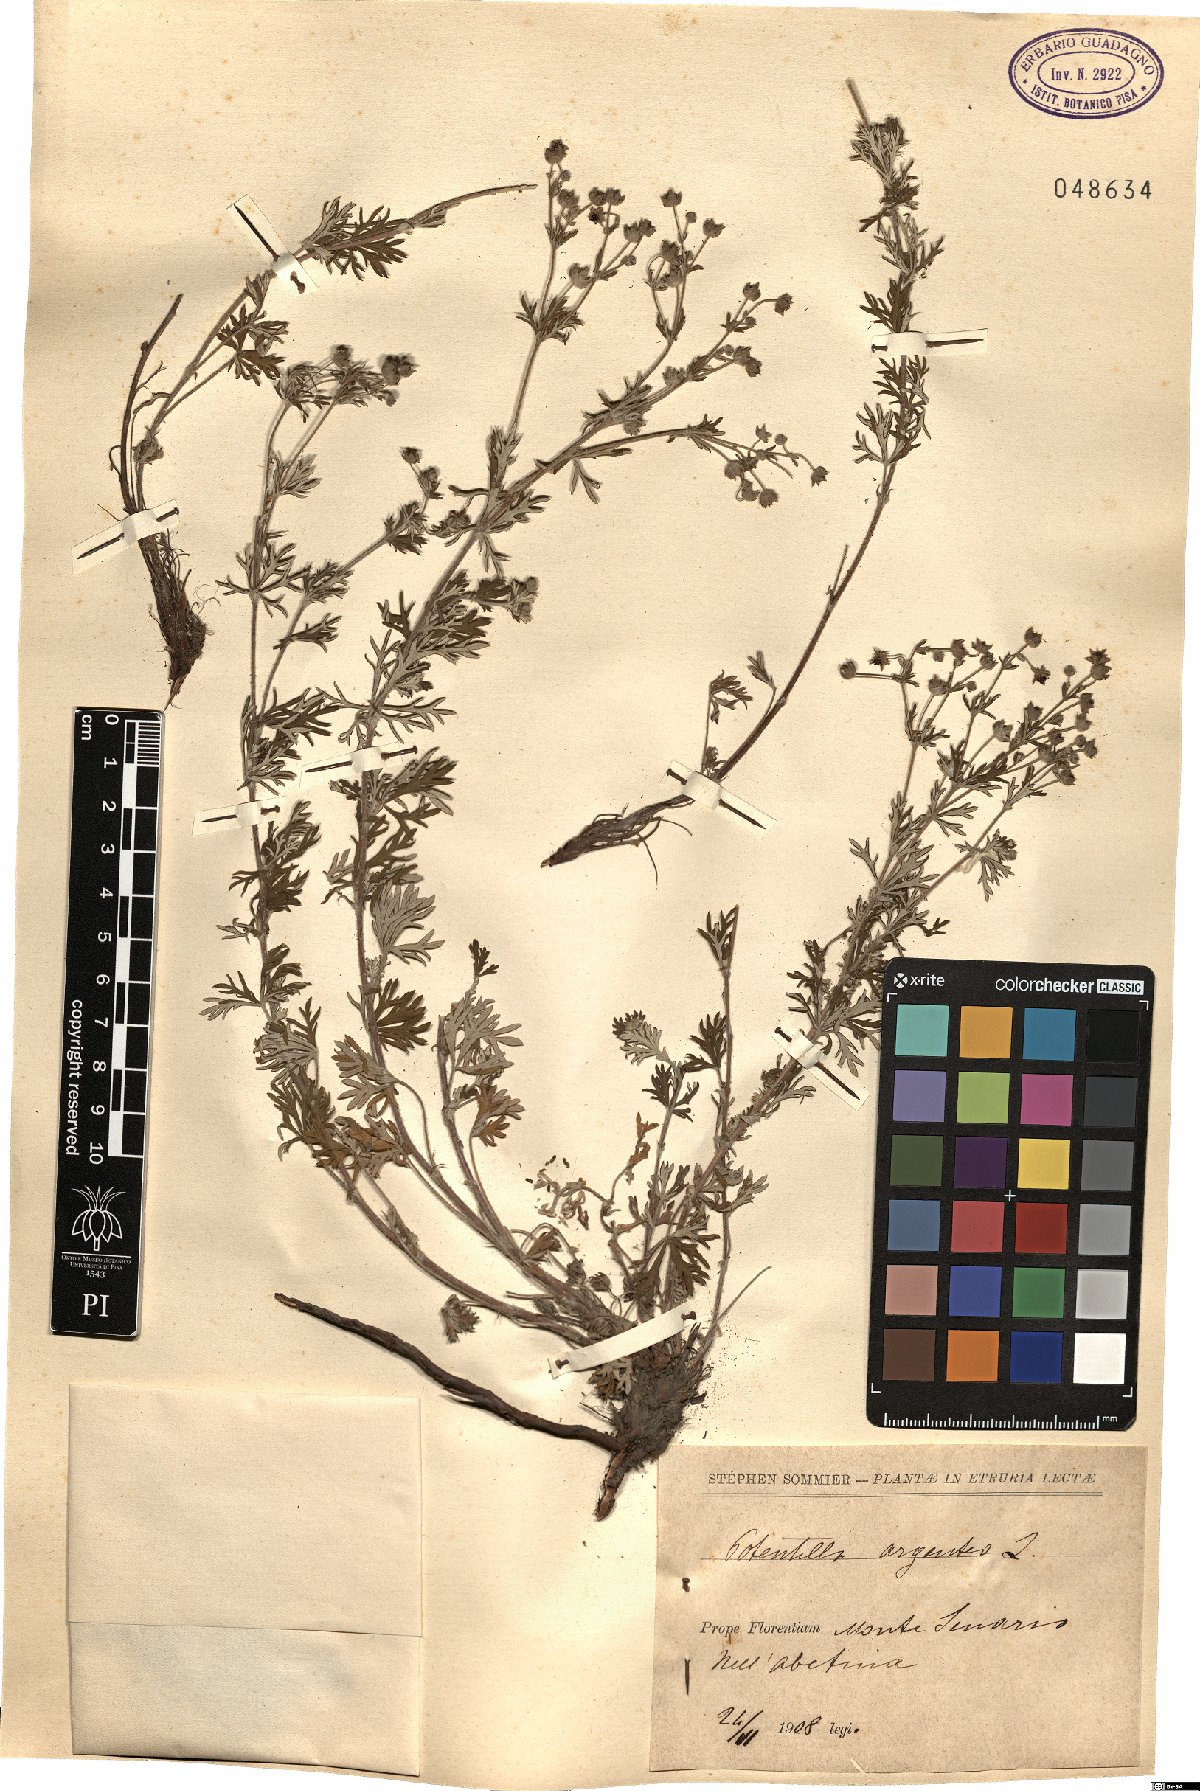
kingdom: Plantae
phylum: Tracheophyta
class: Magnoliopsida
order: Rosales
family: Rosaceae
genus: Potentilla
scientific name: Potentilla argentea
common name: Hoary cinquefoil
